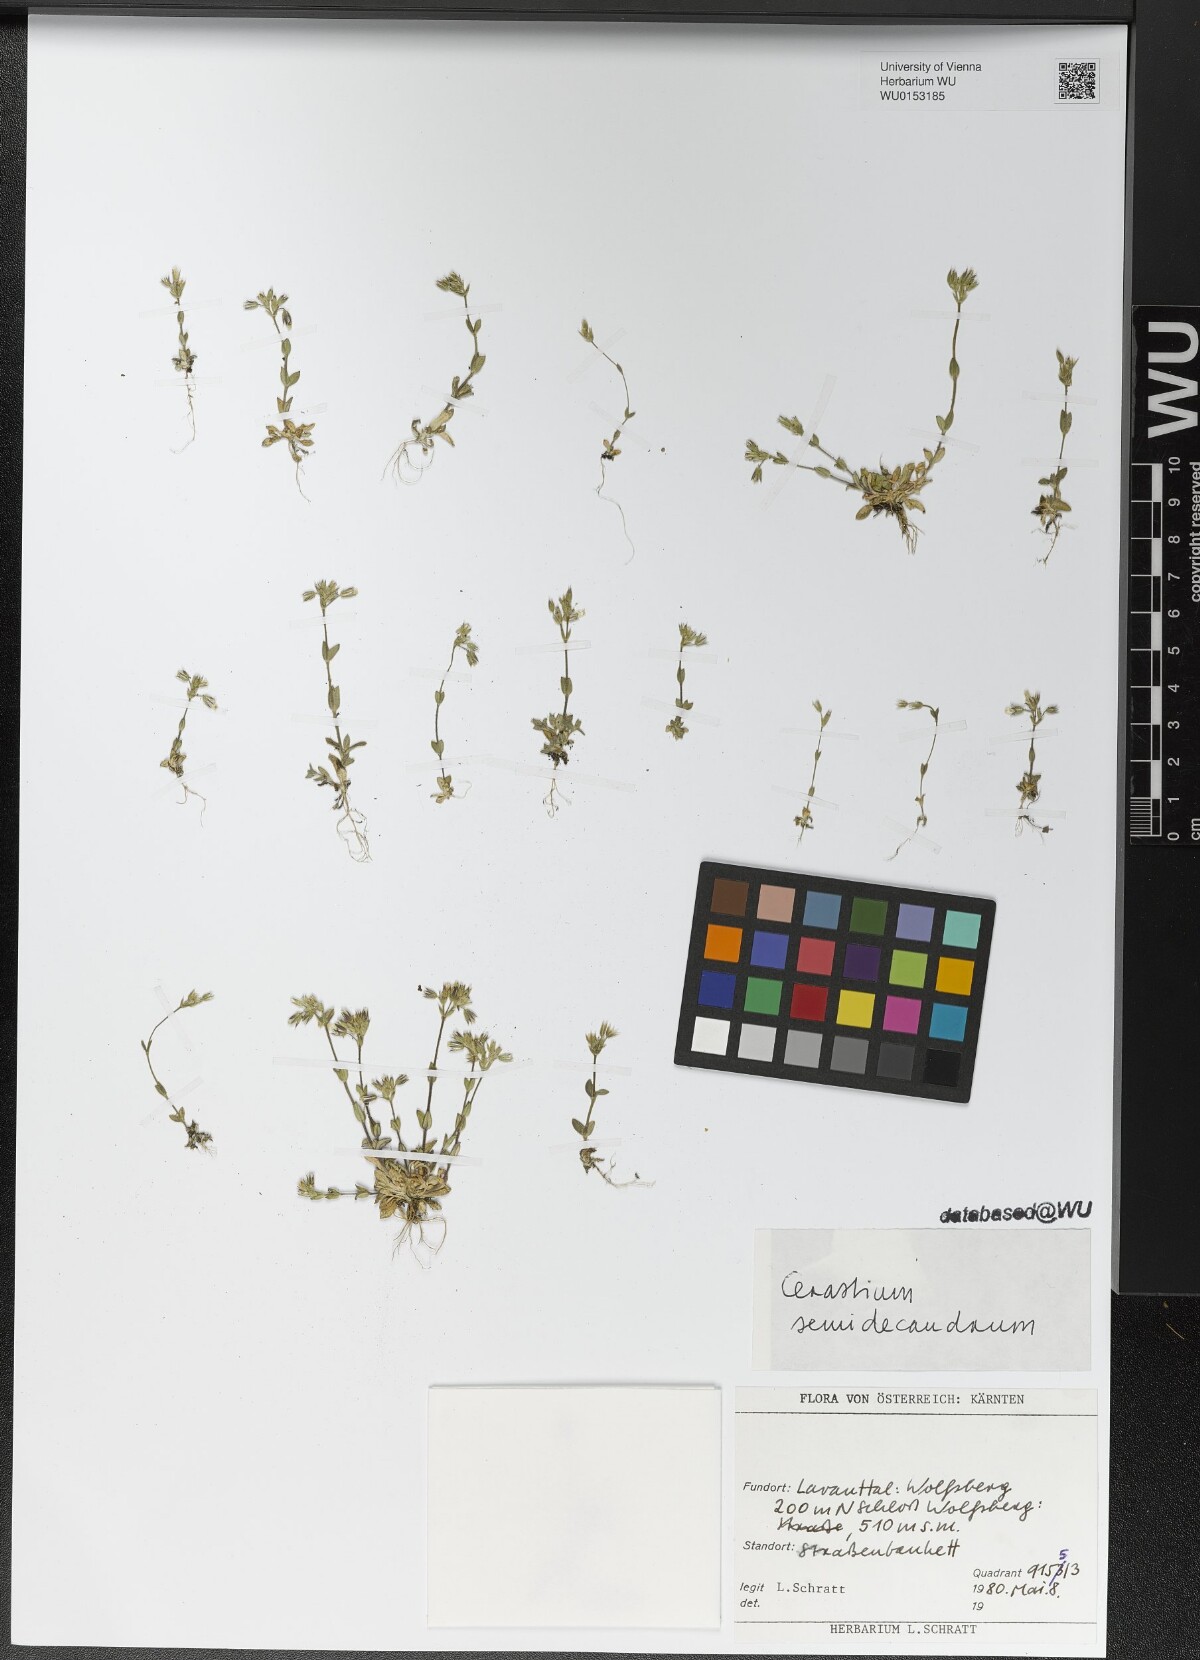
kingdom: Plantae
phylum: Tracheophyta
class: Magnoliopsida
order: Caryophyllales
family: Caryophyllaceae
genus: Cerastium
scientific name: Cerastium semidecandrum
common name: Little mouse-ear
